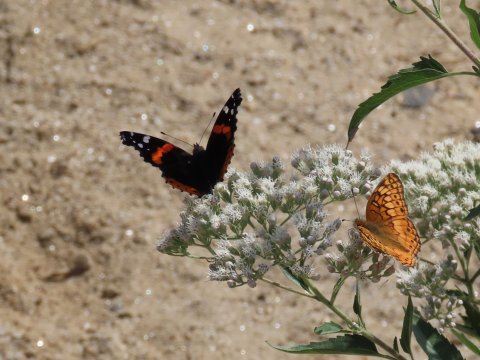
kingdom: Animalia
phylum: Arthropoda
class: Insecta
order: Lepidoptera
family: Nymphalidae
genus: Vanessa
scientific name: Vanessa atalanta
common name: Red Admiral
